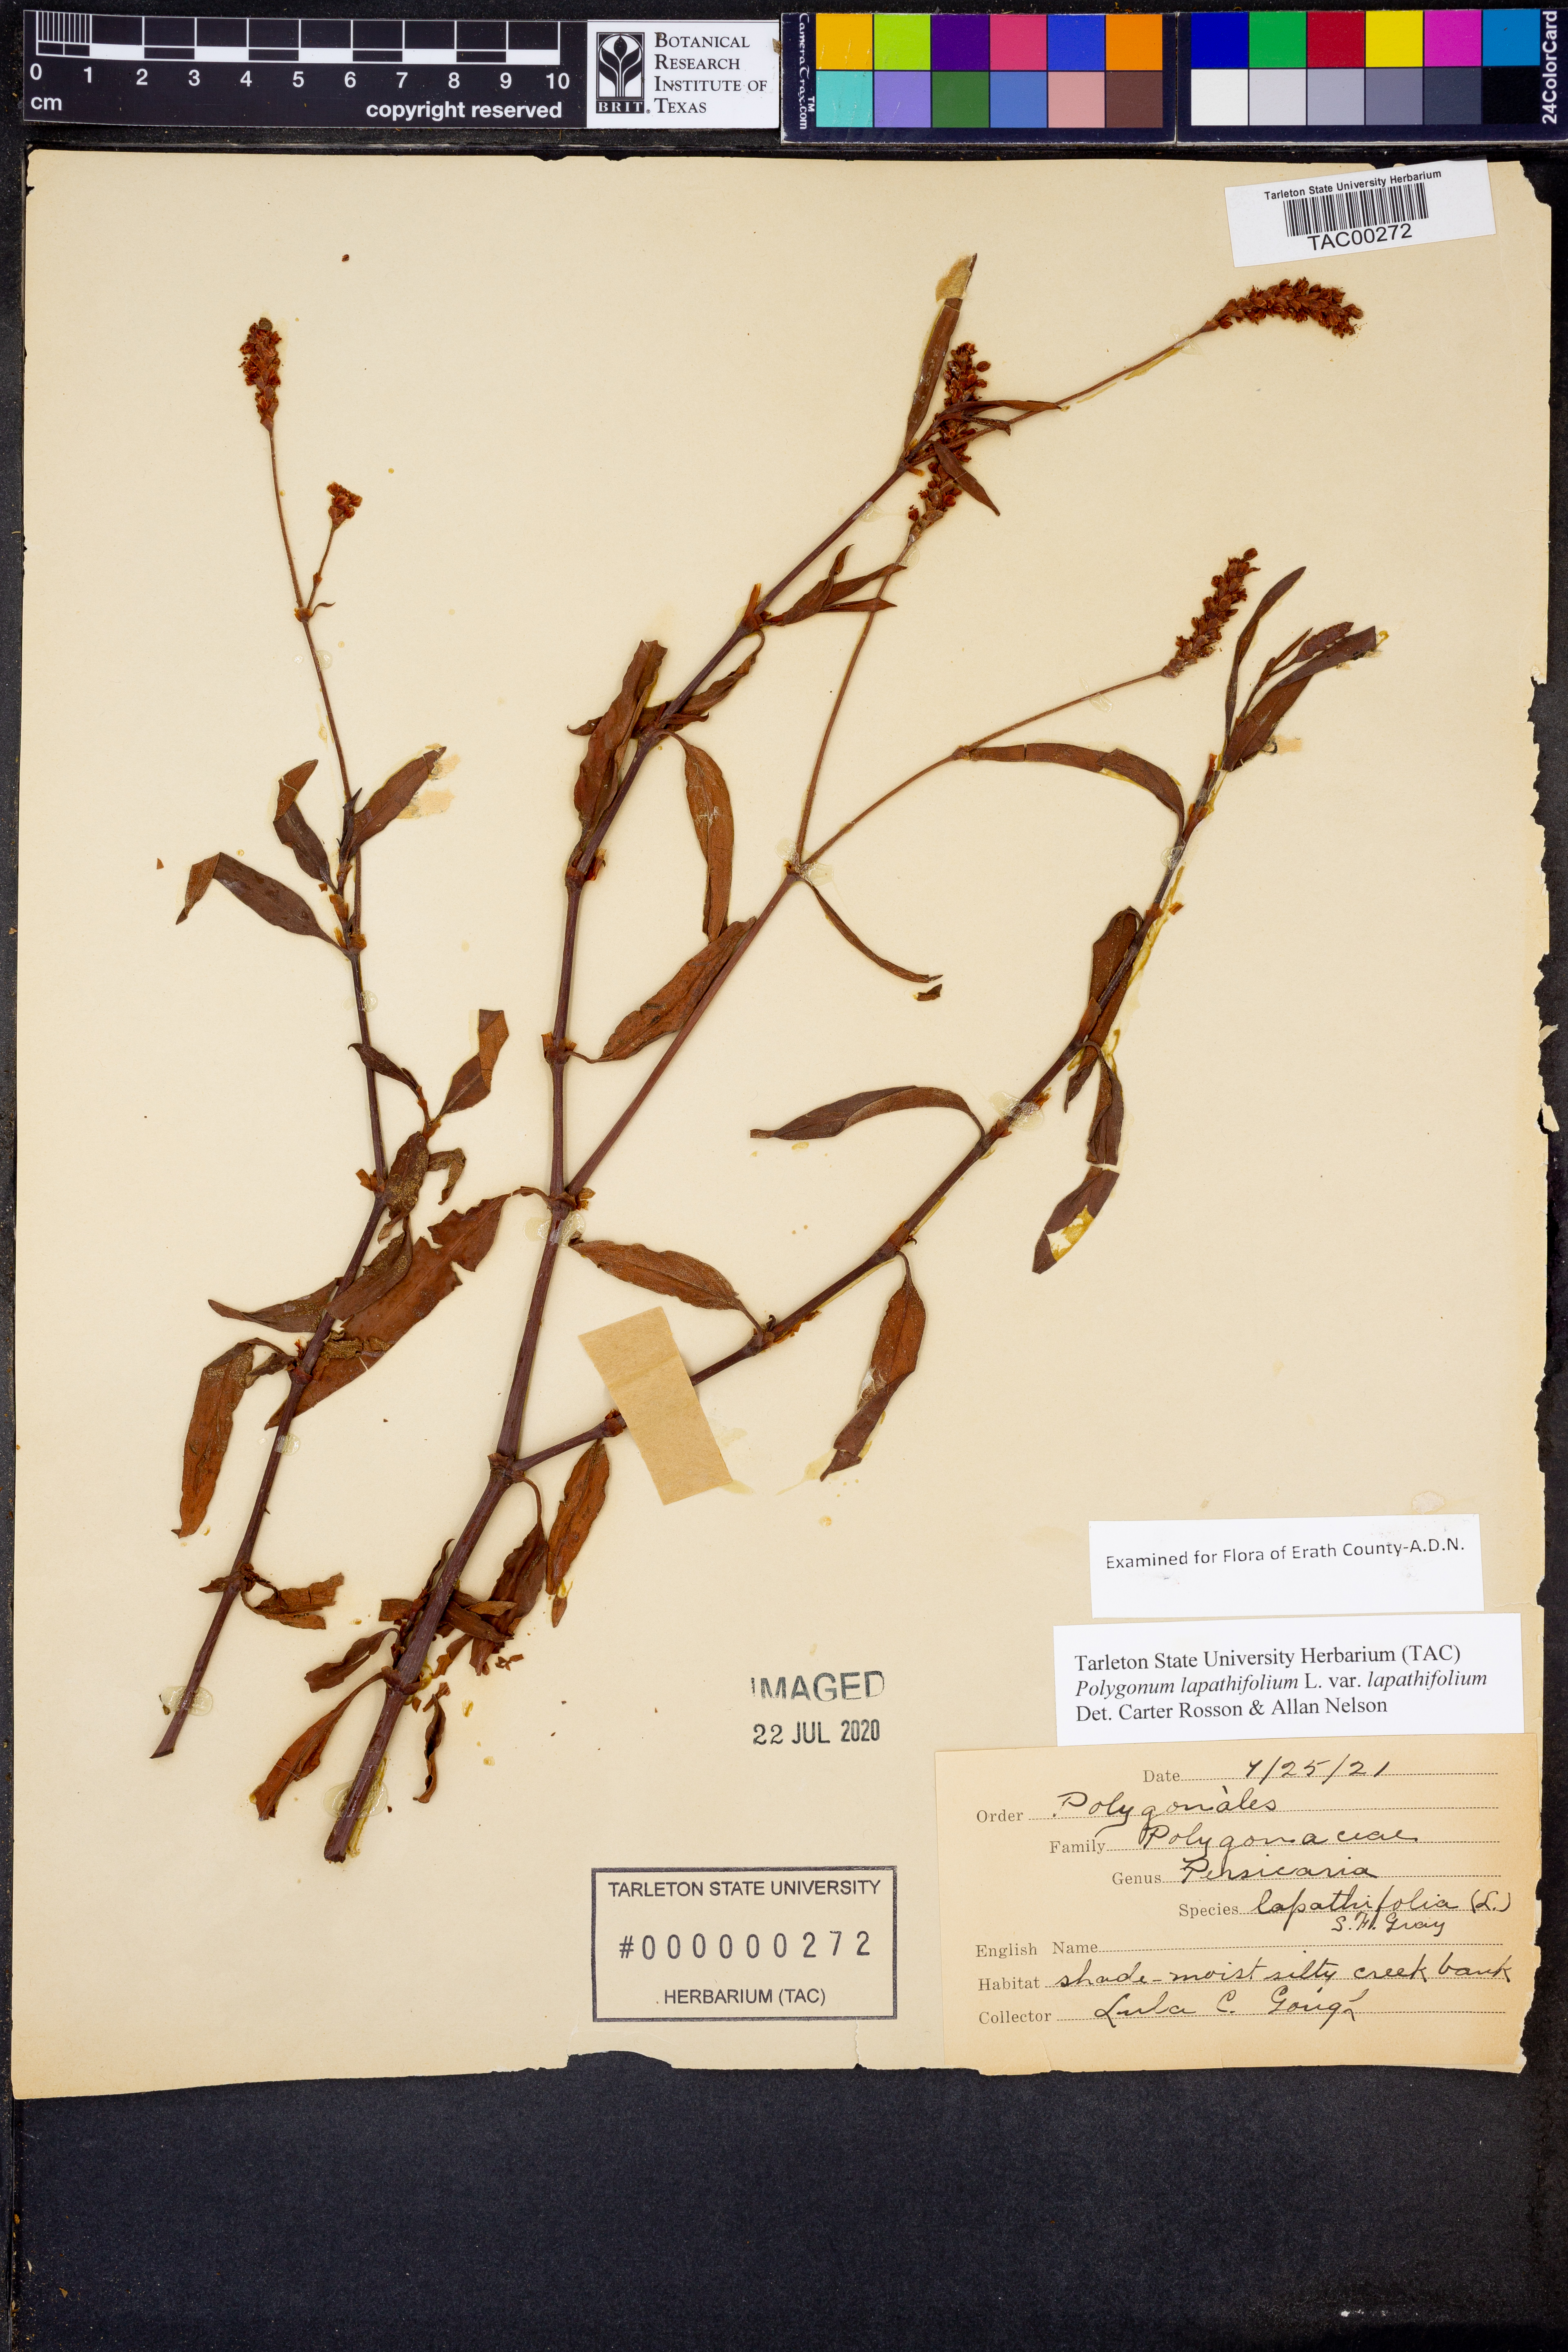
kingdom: Plantae
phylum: Tracheophyta
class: Magnoliopsida
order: Caryophyllales
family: Polygonaceae
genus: Persicaria
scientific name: Persicaria lapathifolia
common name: Curlytop knotweed
